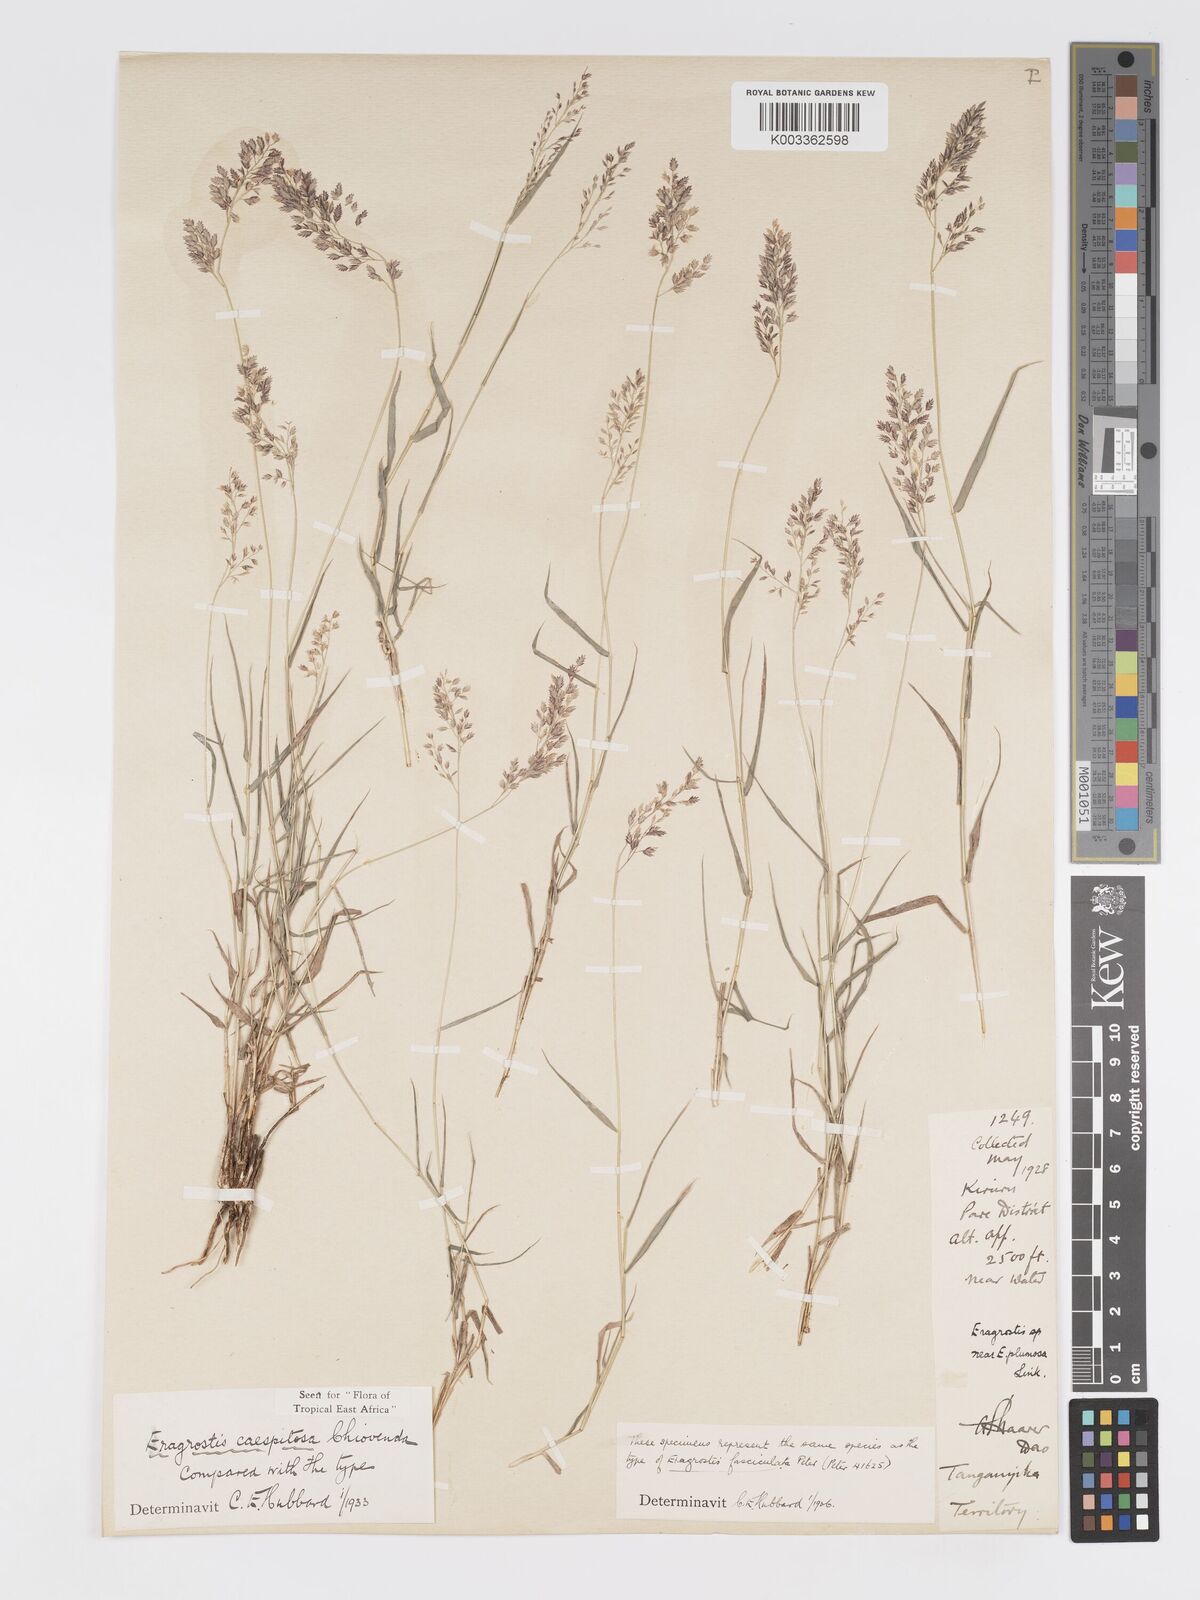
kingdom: Plantae
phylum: Tracheophyta
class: Liliopsida
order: Poales
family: Poaceae
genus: Eragrostis
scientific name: Eragrostis caespitosa
